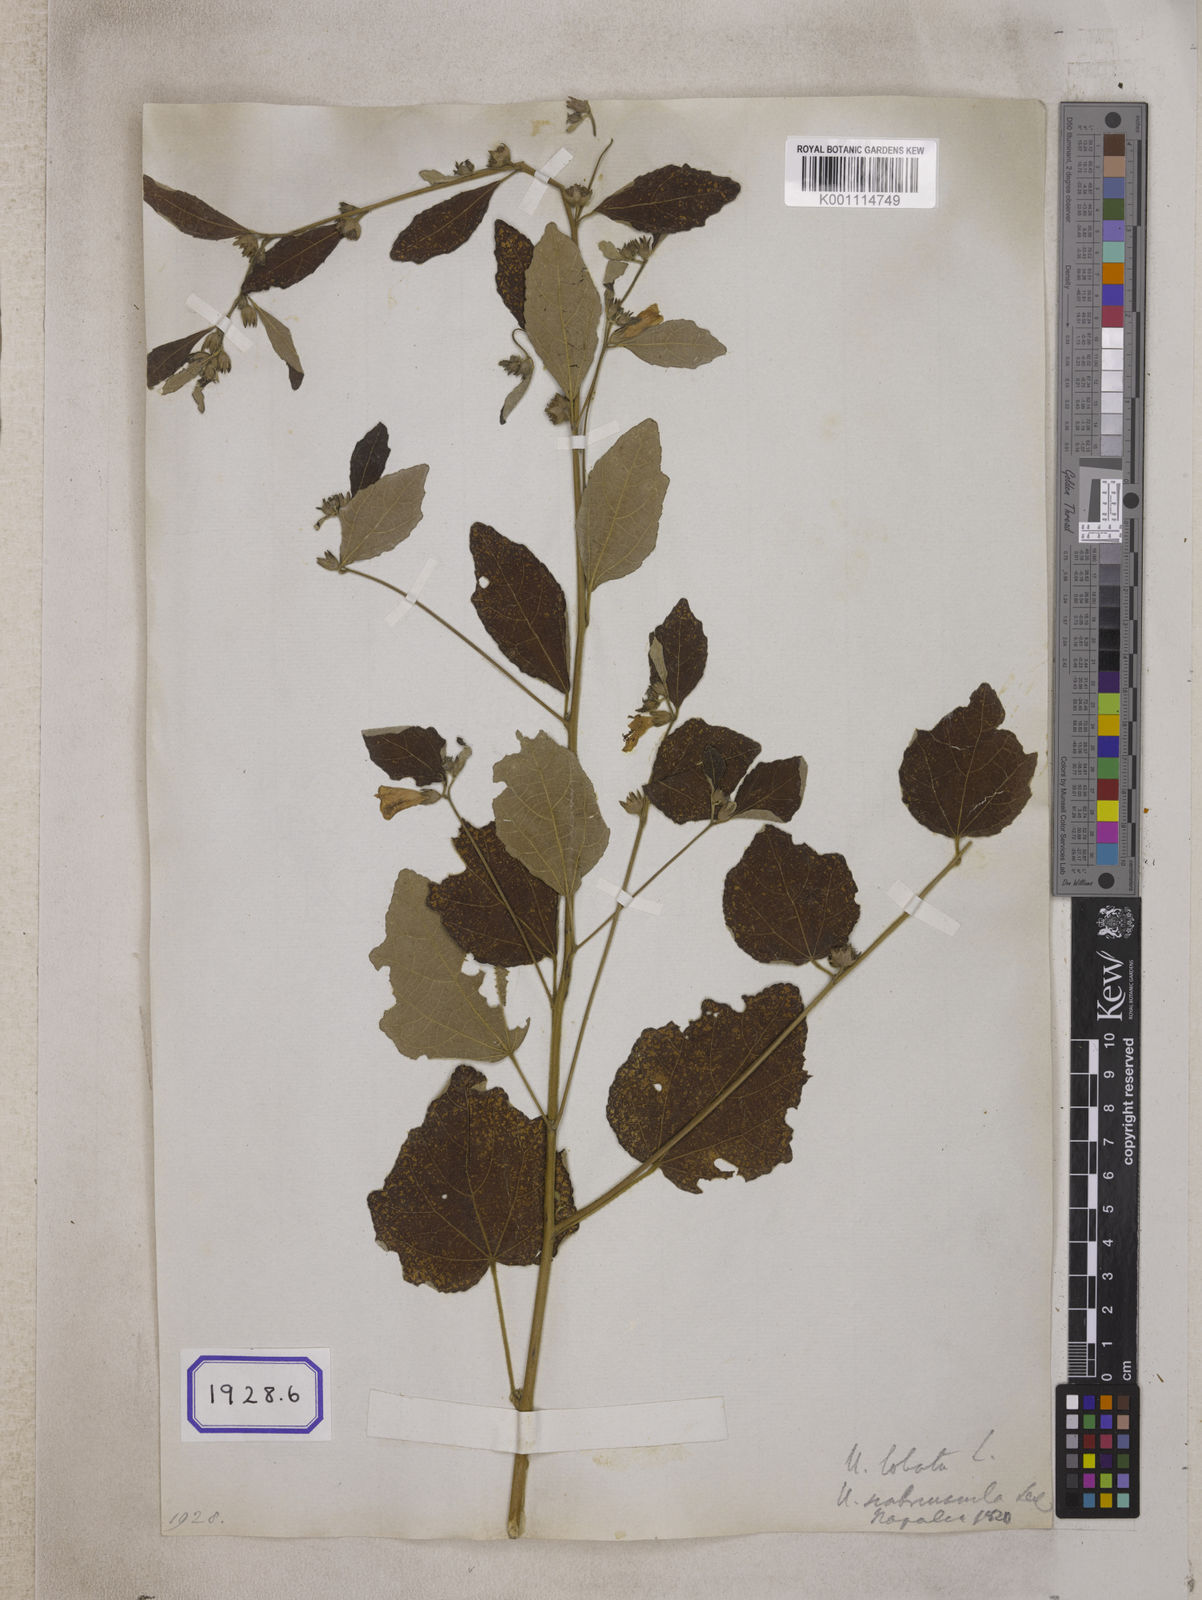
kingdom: Plantae
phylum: Tracheophyta
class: Magnoliopsida
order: Malvales
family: Malvaceae
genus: Urena
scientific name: Urena lobata
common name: Caesarweed
